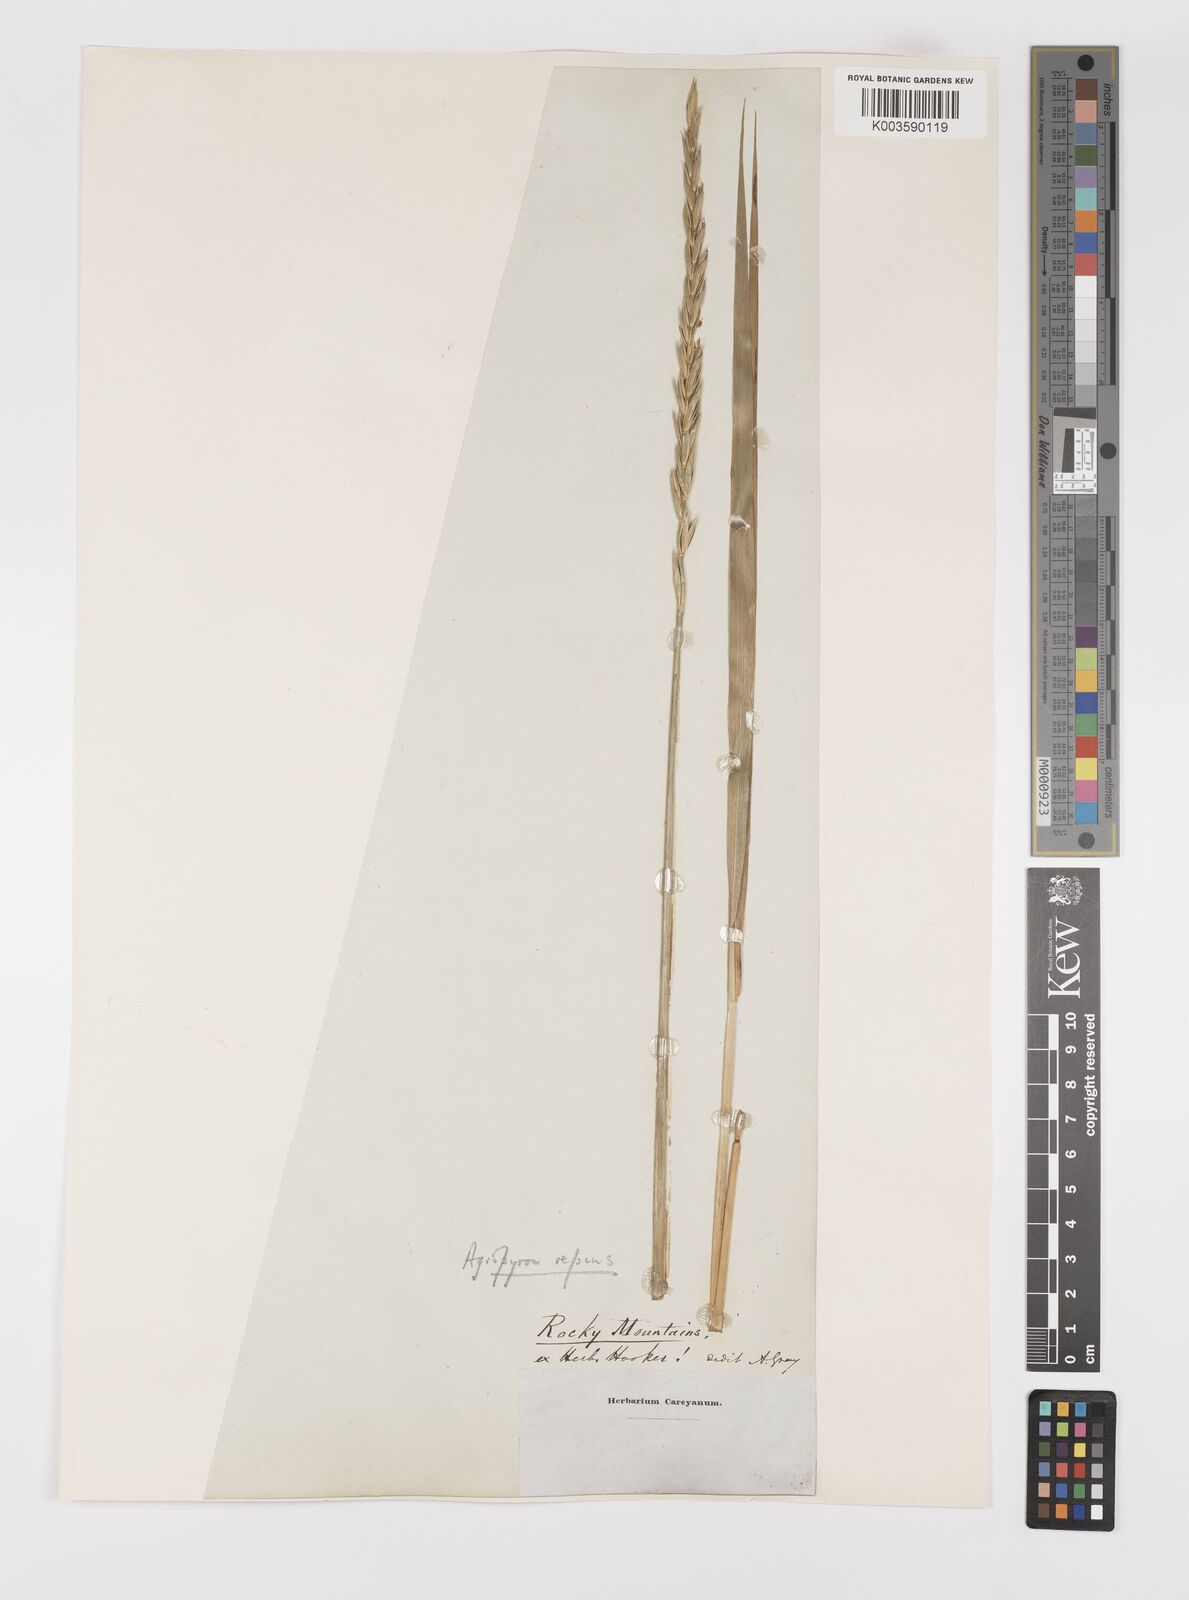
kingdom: Plantae
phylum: Tracheophyta
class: Liliopsida
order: Poales
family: Poaceae
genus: Elymus
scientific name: Elymus repens
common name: Quackgrass
